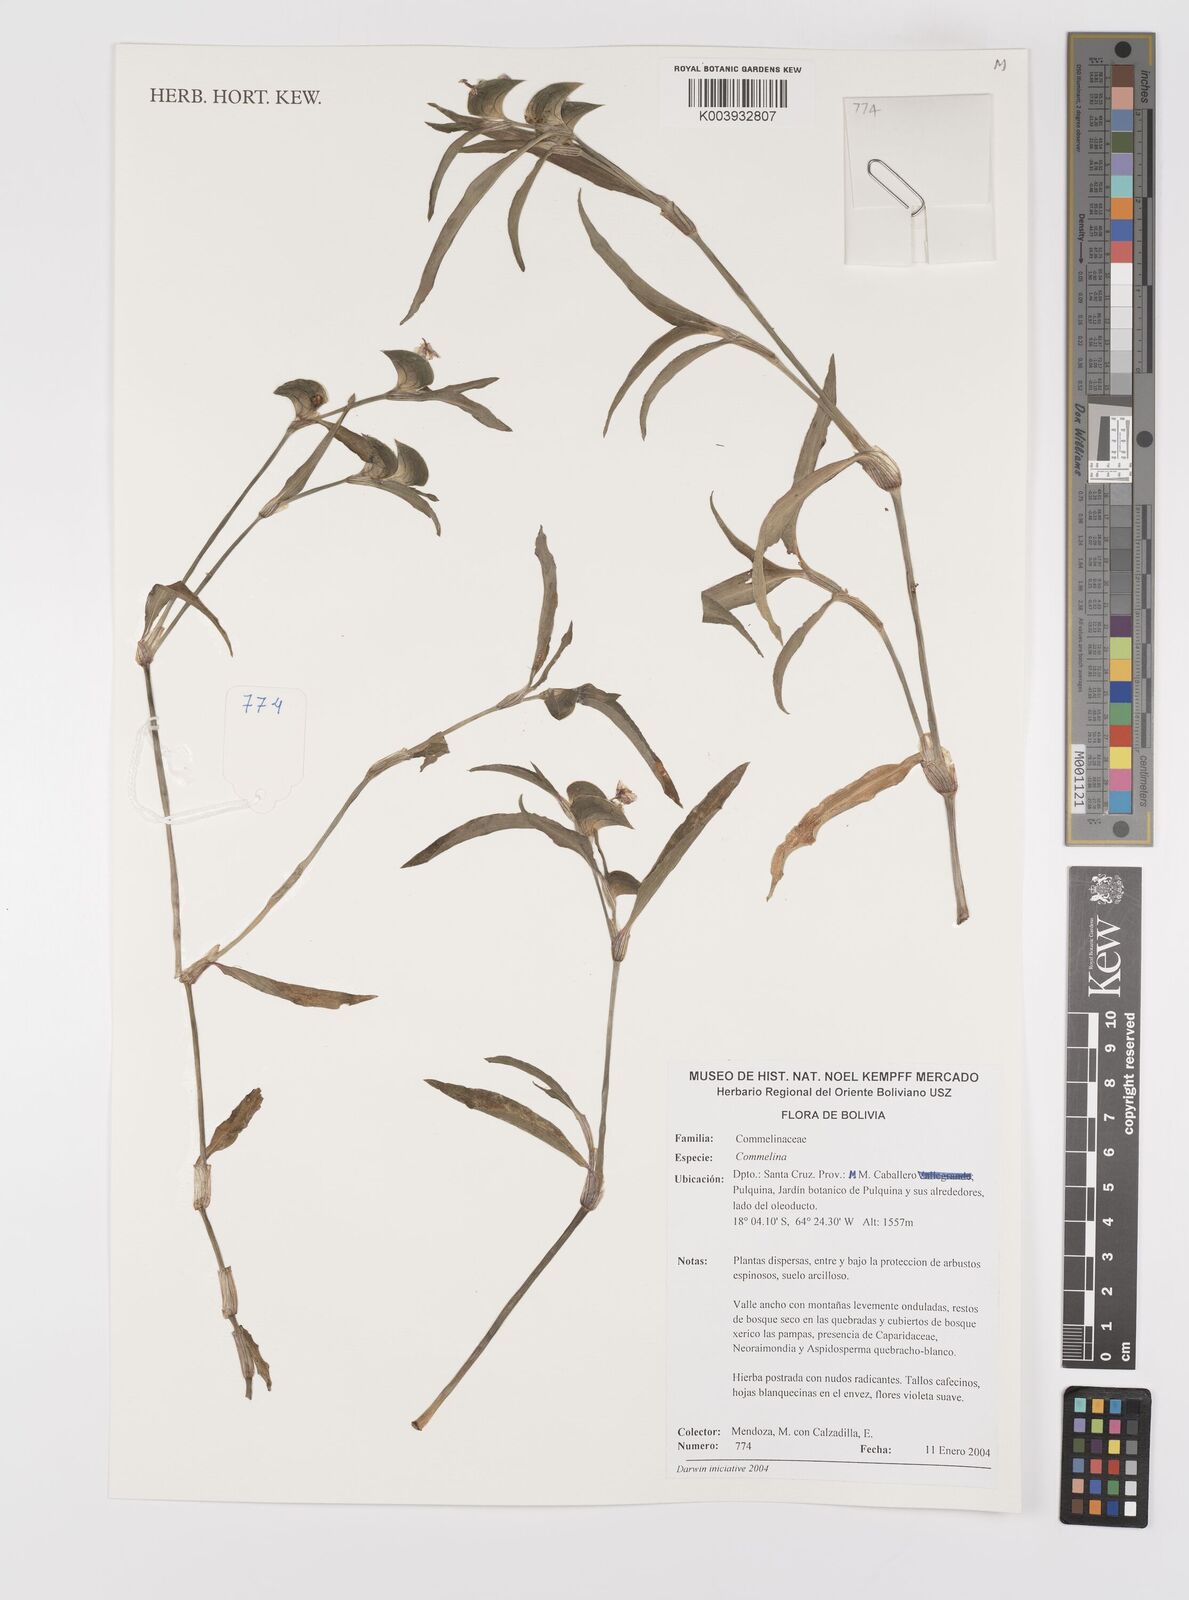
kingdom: Plantae
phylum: Tracheophyta
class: Liliopsida
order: Commelinales
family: Commelinaceae
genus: Commelina
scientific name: Commelina
